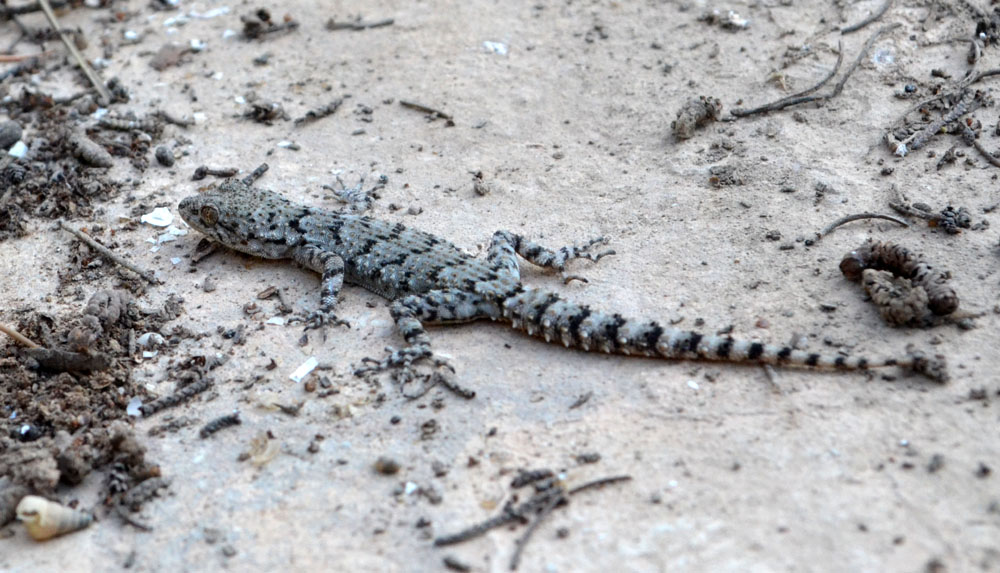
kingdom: Animalia
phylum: Chordata
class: Squamata
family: Gekkonidae
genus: Mediodactylus
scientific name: Mediodactylus kotschyi
